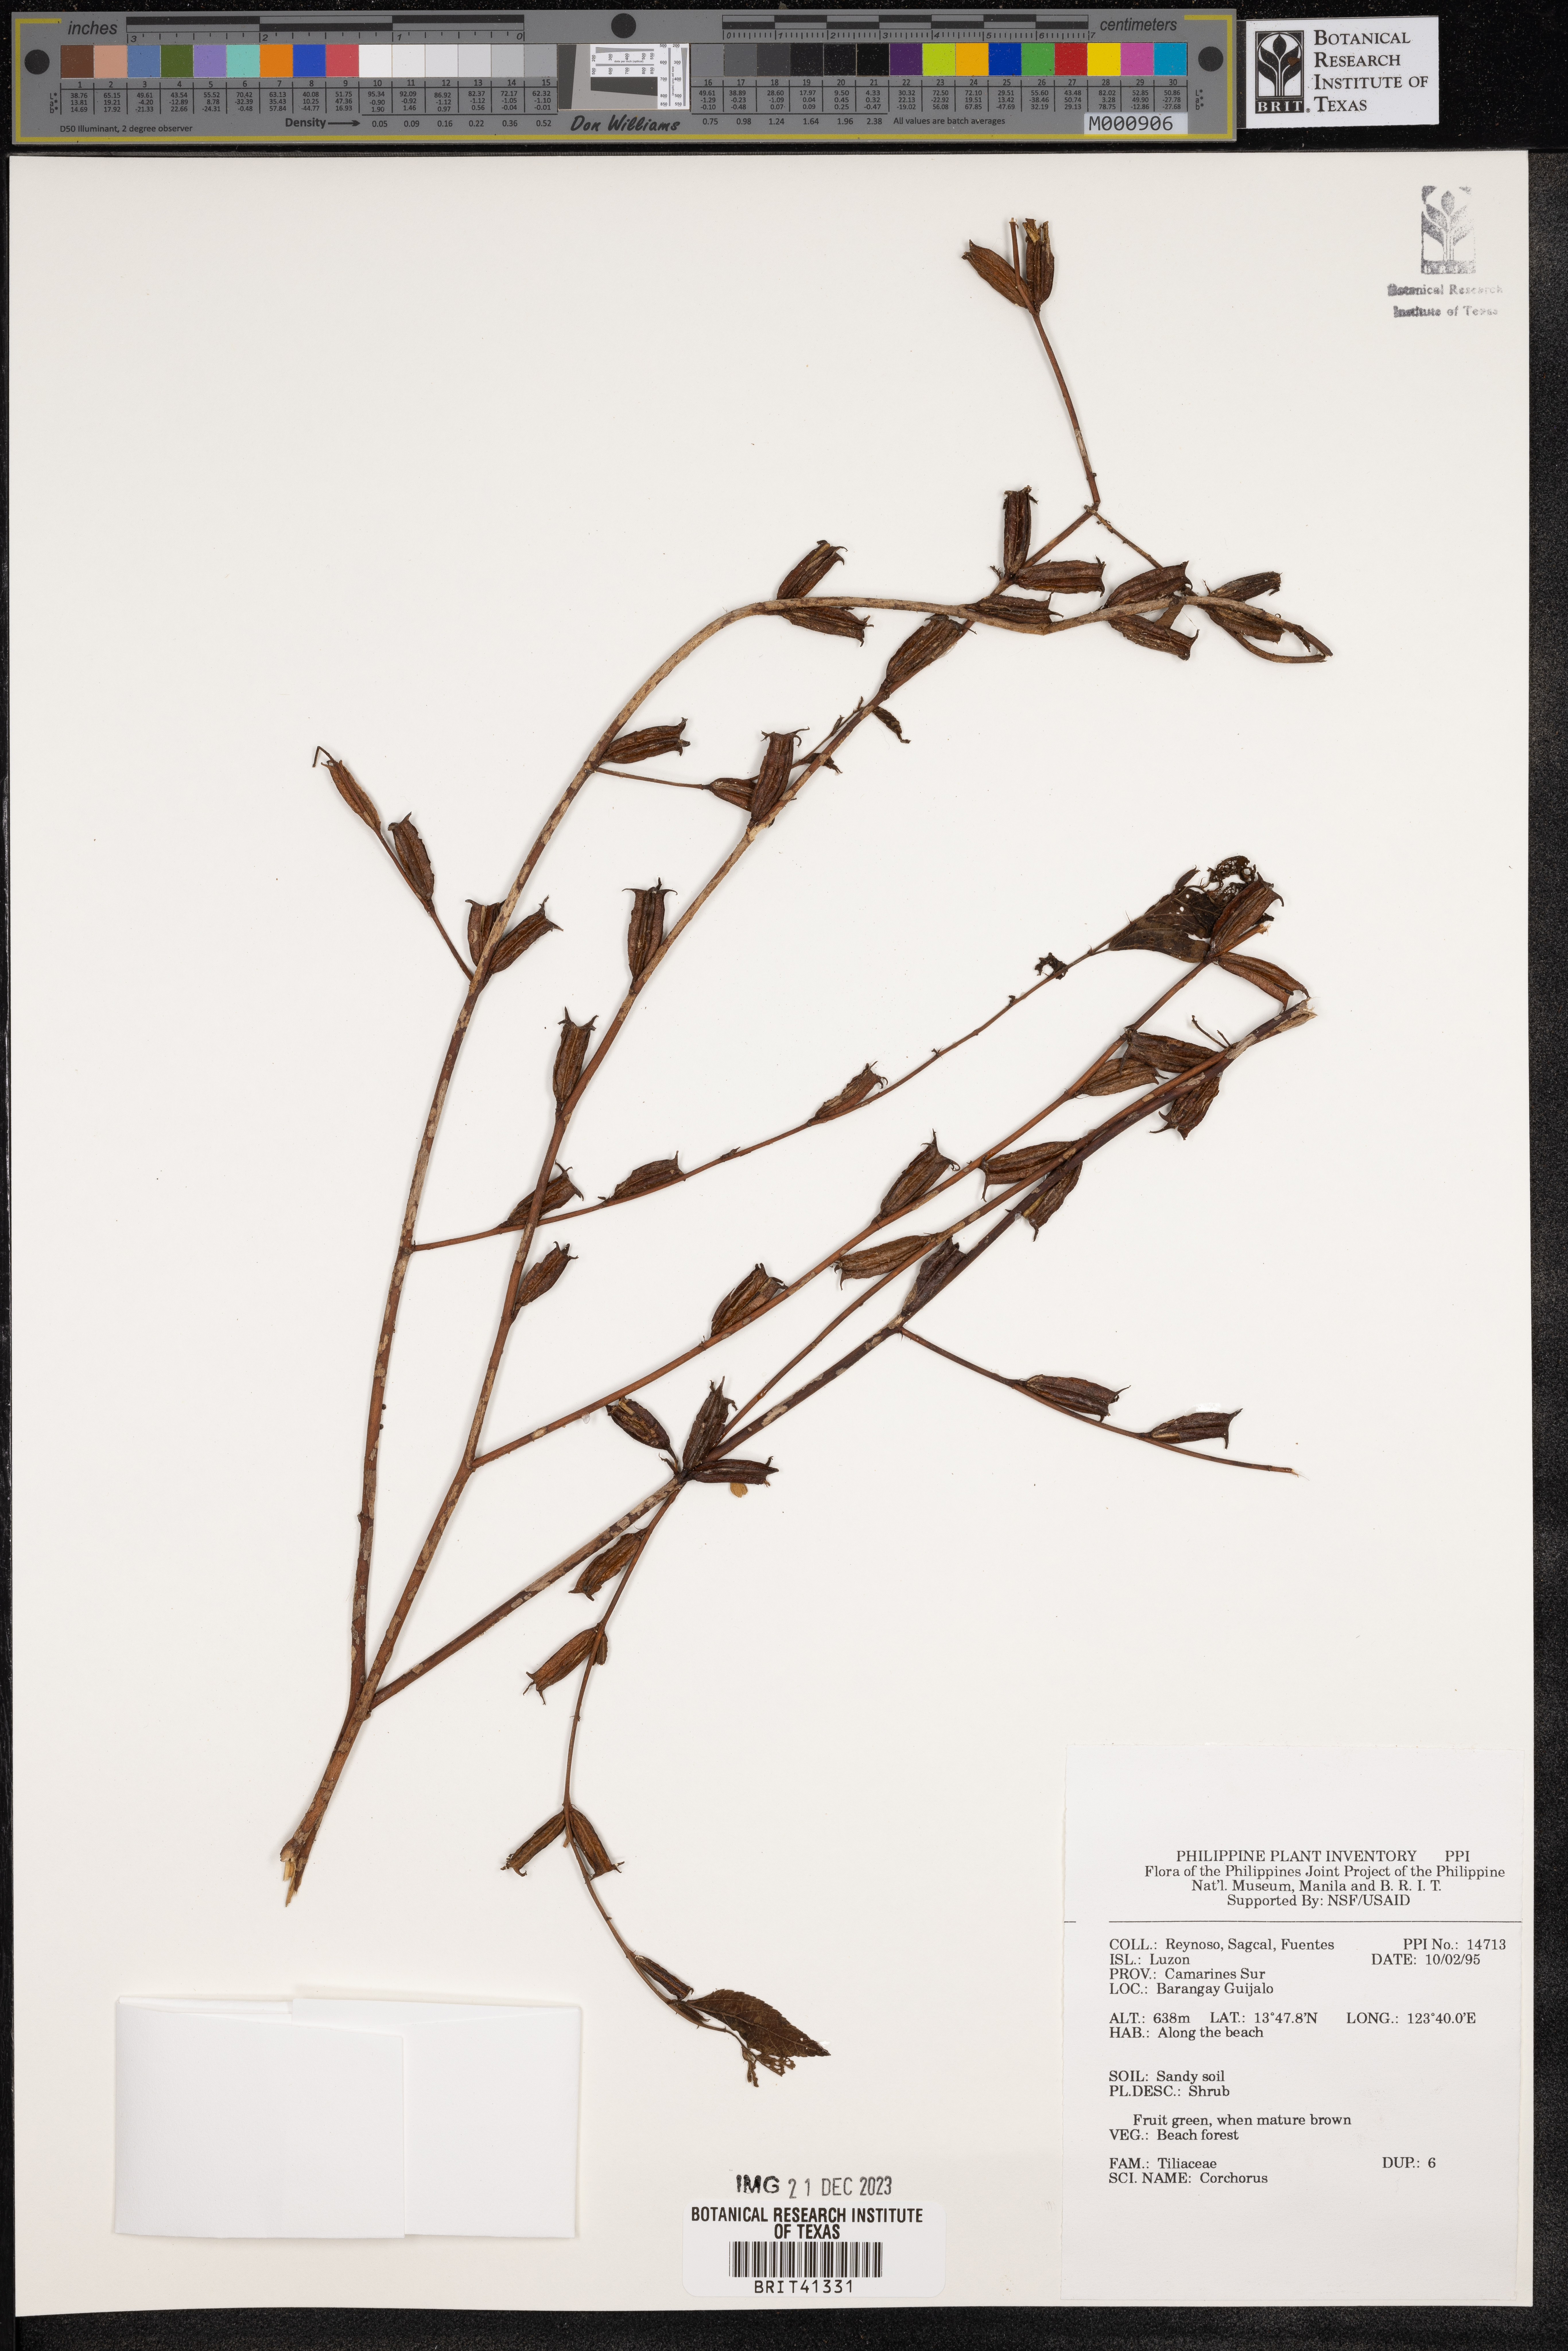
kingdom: Plantae
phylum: Tracheophyta
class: Magnoliopsida
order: Malvales
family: Malvaceae
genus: Corchorus
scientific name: Corchorus
